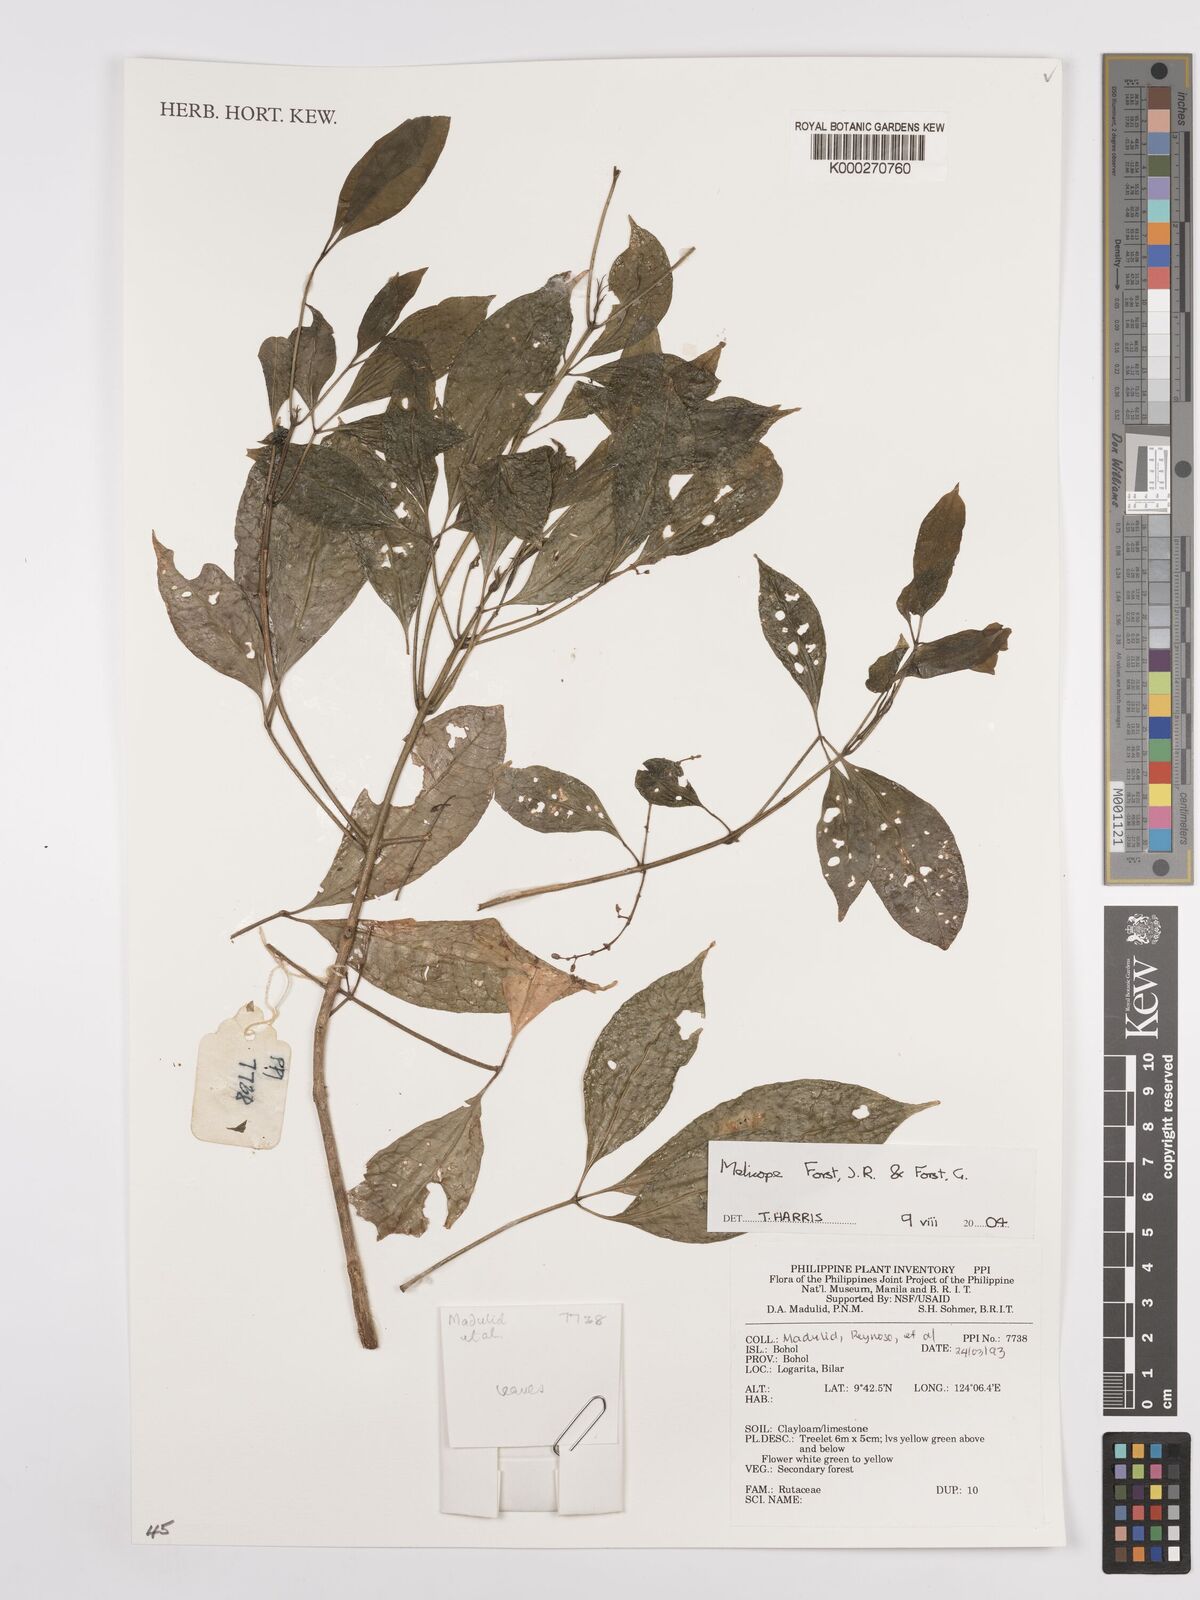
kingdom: Plantae
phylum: Tracheophyta
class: Magnoliopsida
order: Sapindales
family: Rutaceae
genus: Melicope
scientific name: Melicope
